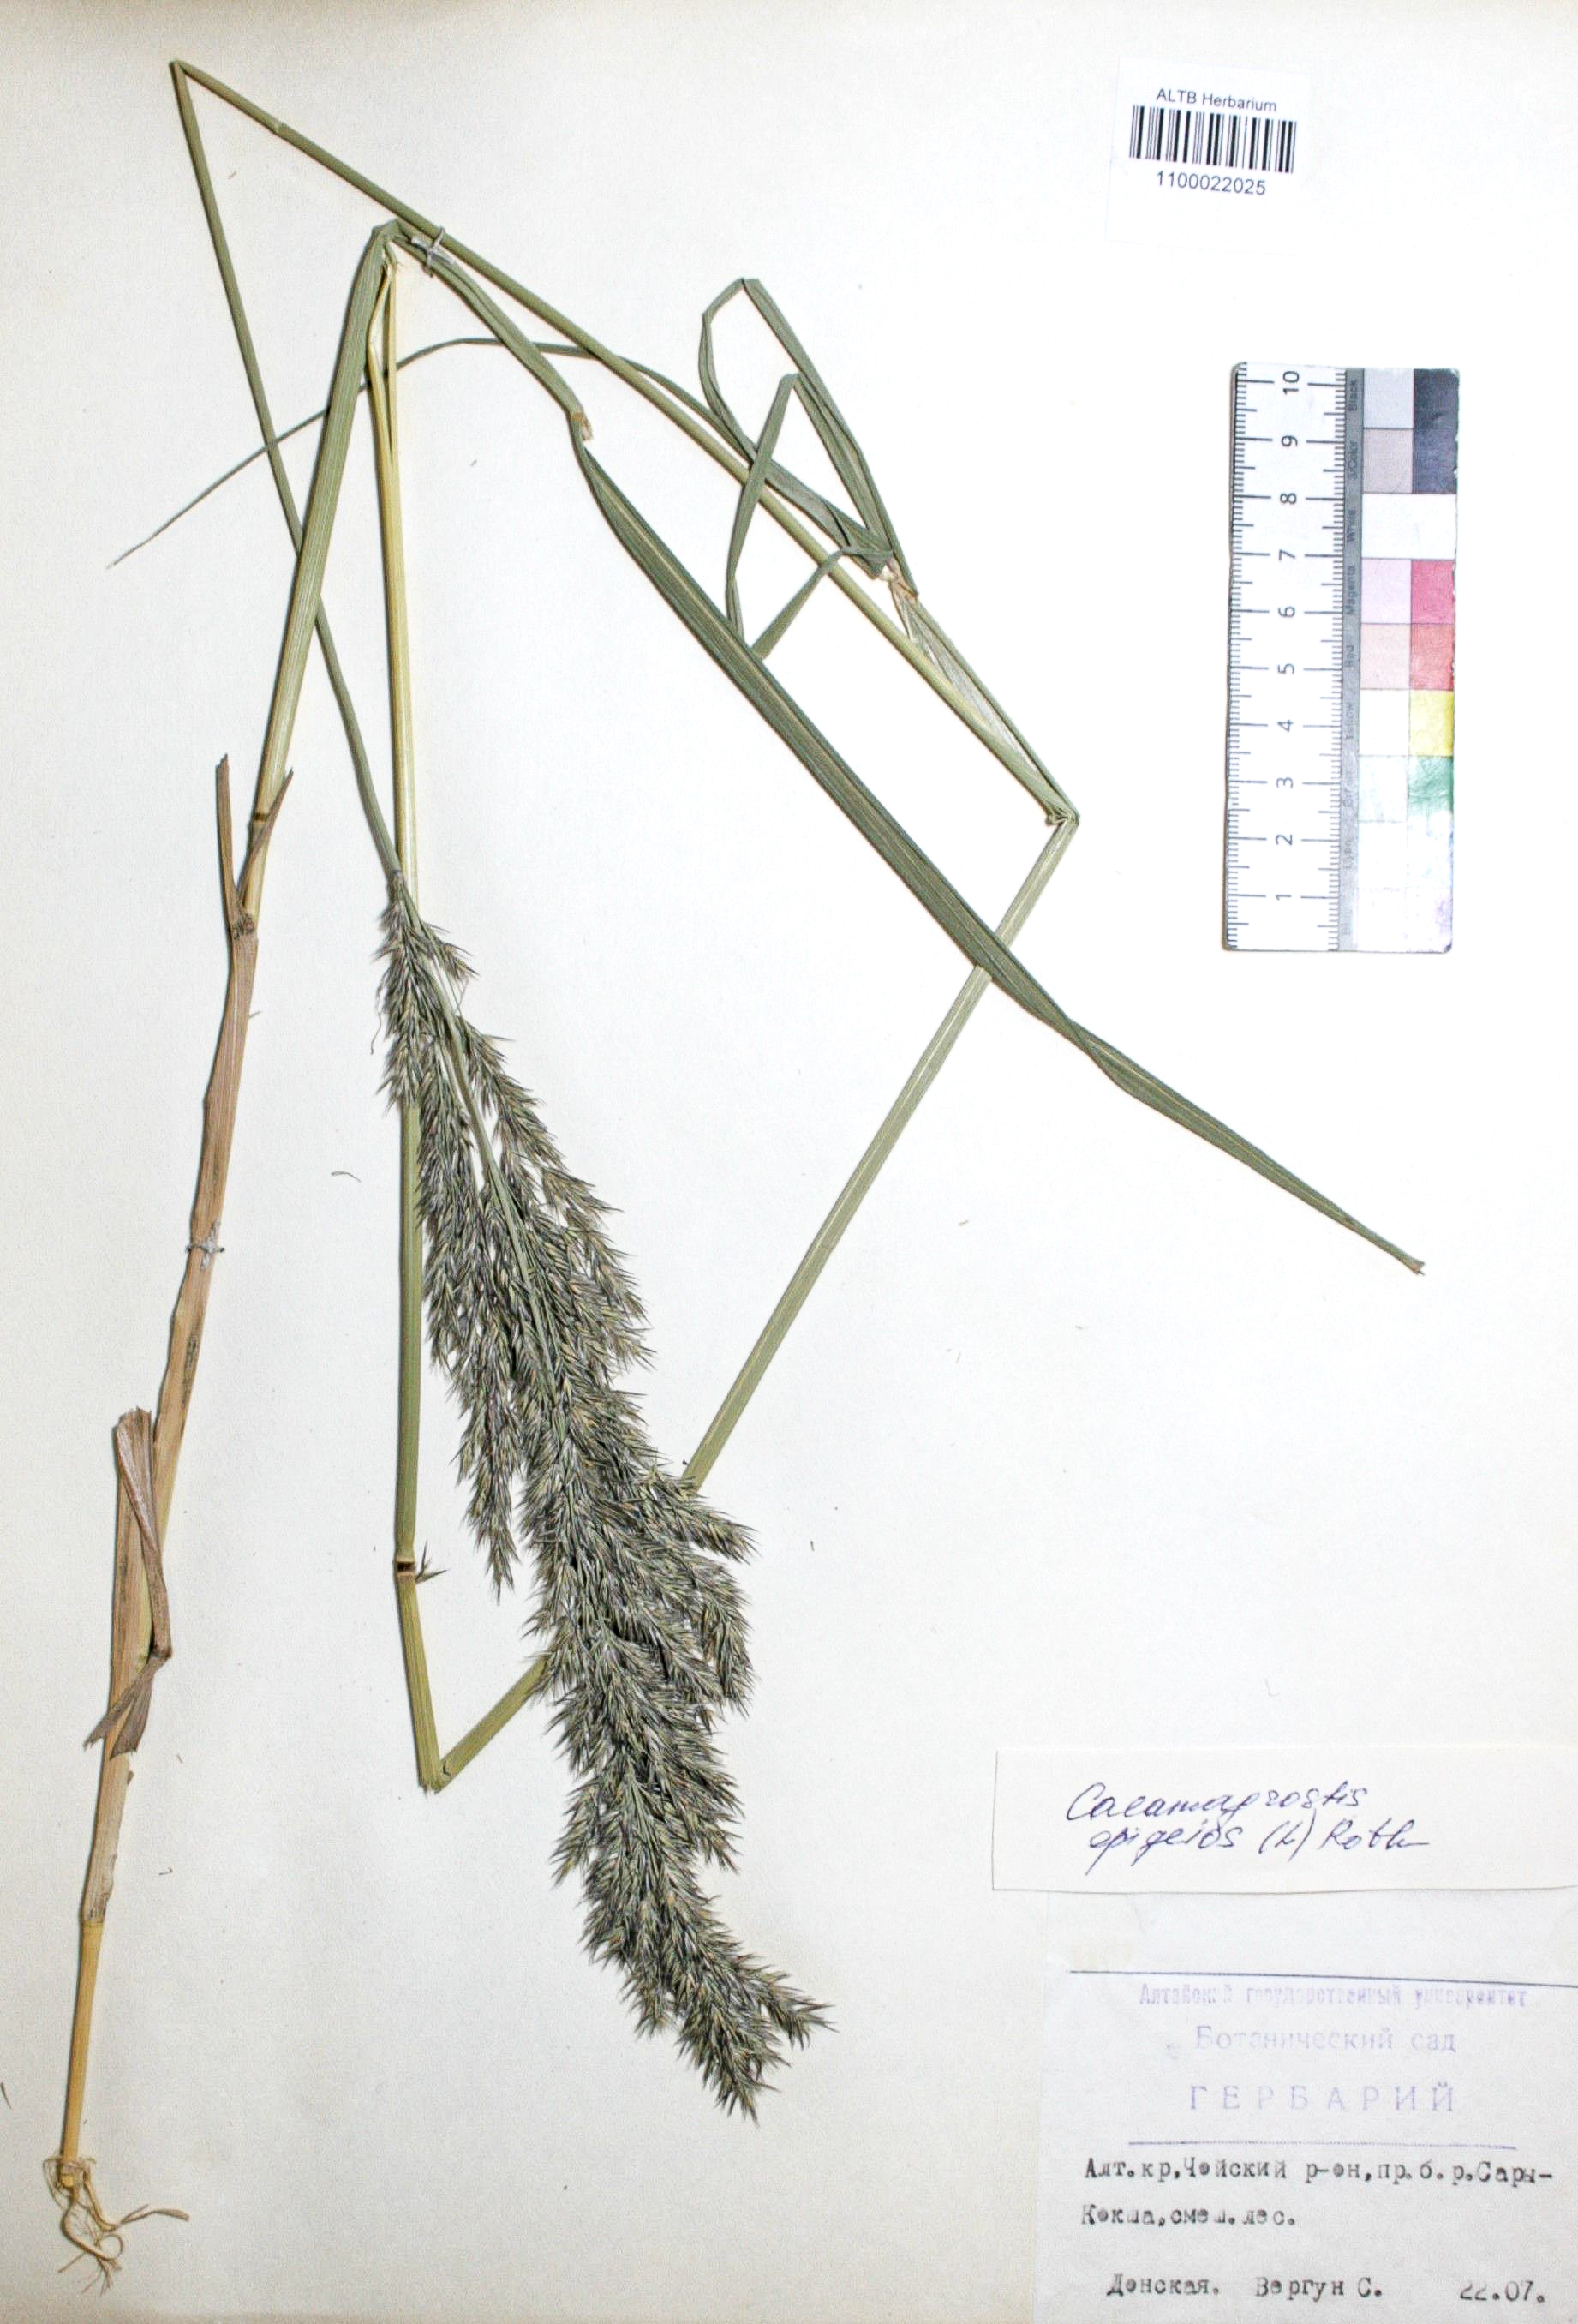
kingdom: Plantae
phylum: Tracheophyta
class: Liliopsida
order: Poales
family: Poaceae
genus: Calamagrostis
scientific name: Calamagrostis epigejos
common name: Wood small-reed
